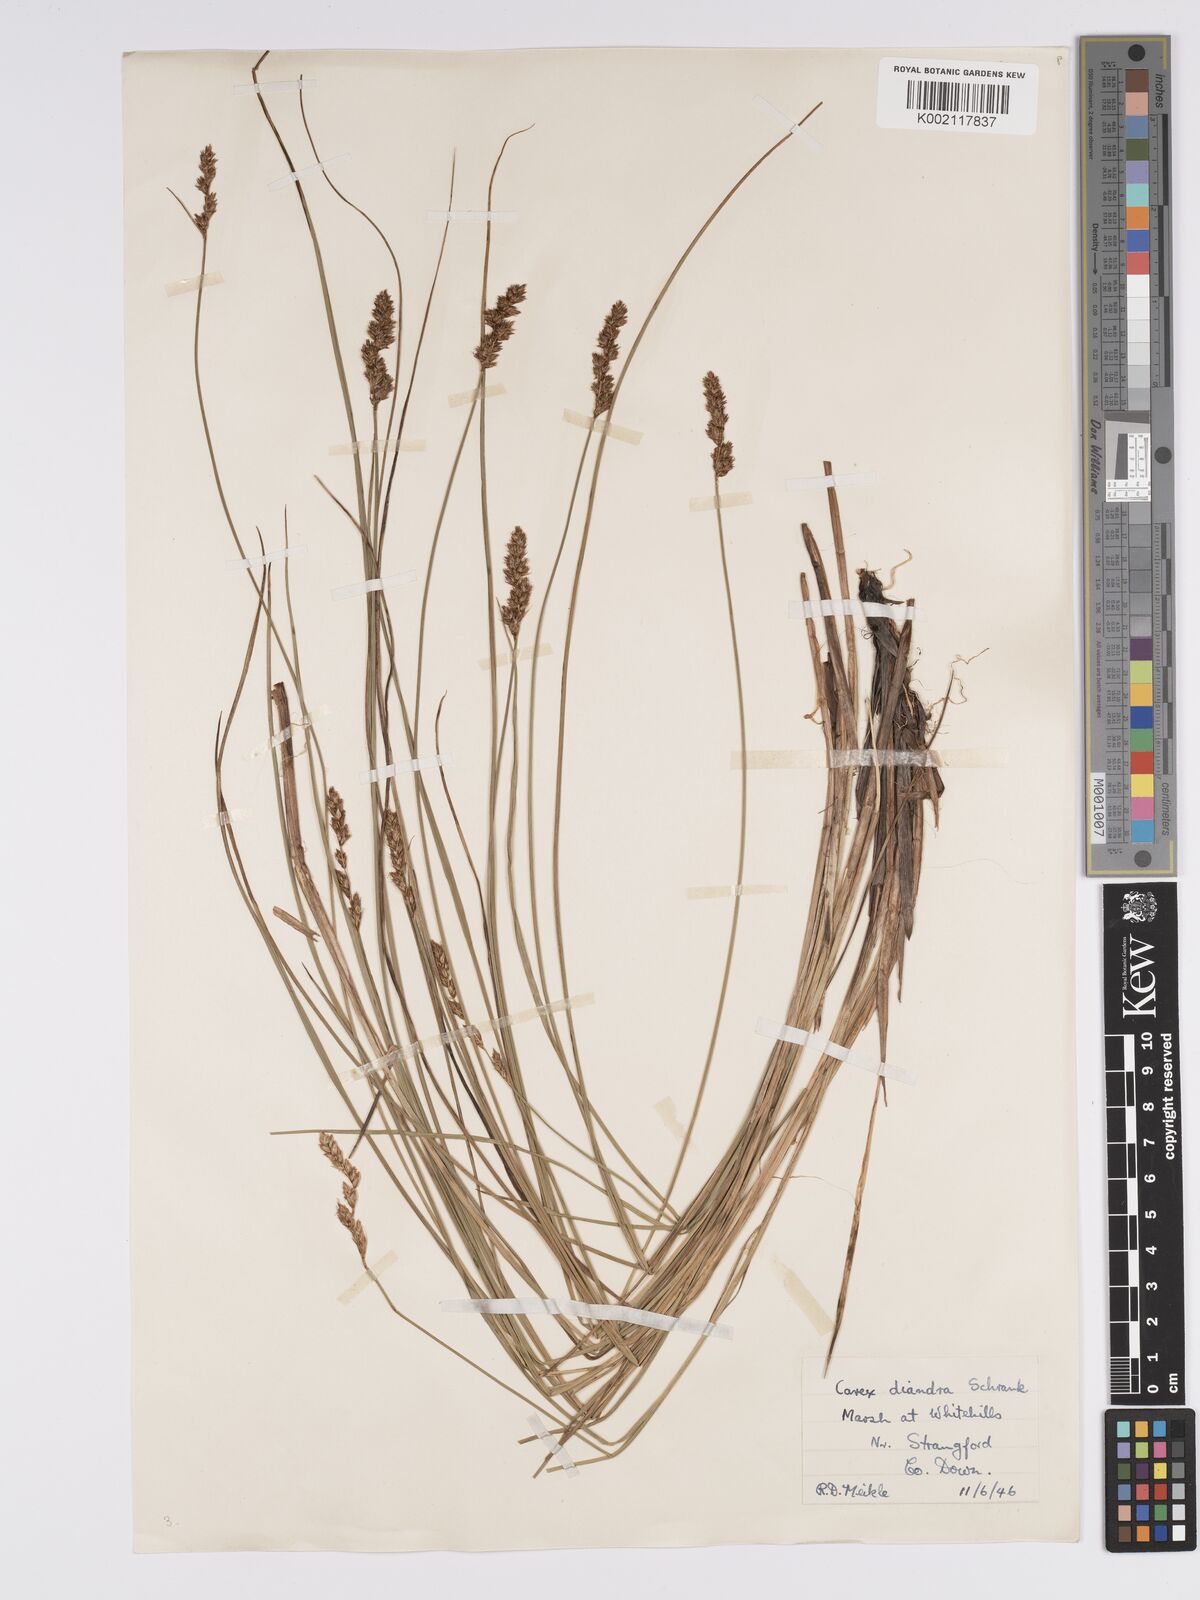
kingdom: Plantae
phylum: Tracheophyta
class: Liliopsida
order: Poales
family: Cyperaceae
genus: Carex
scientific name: Carex diandra
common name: Lesser tussock-sedge
